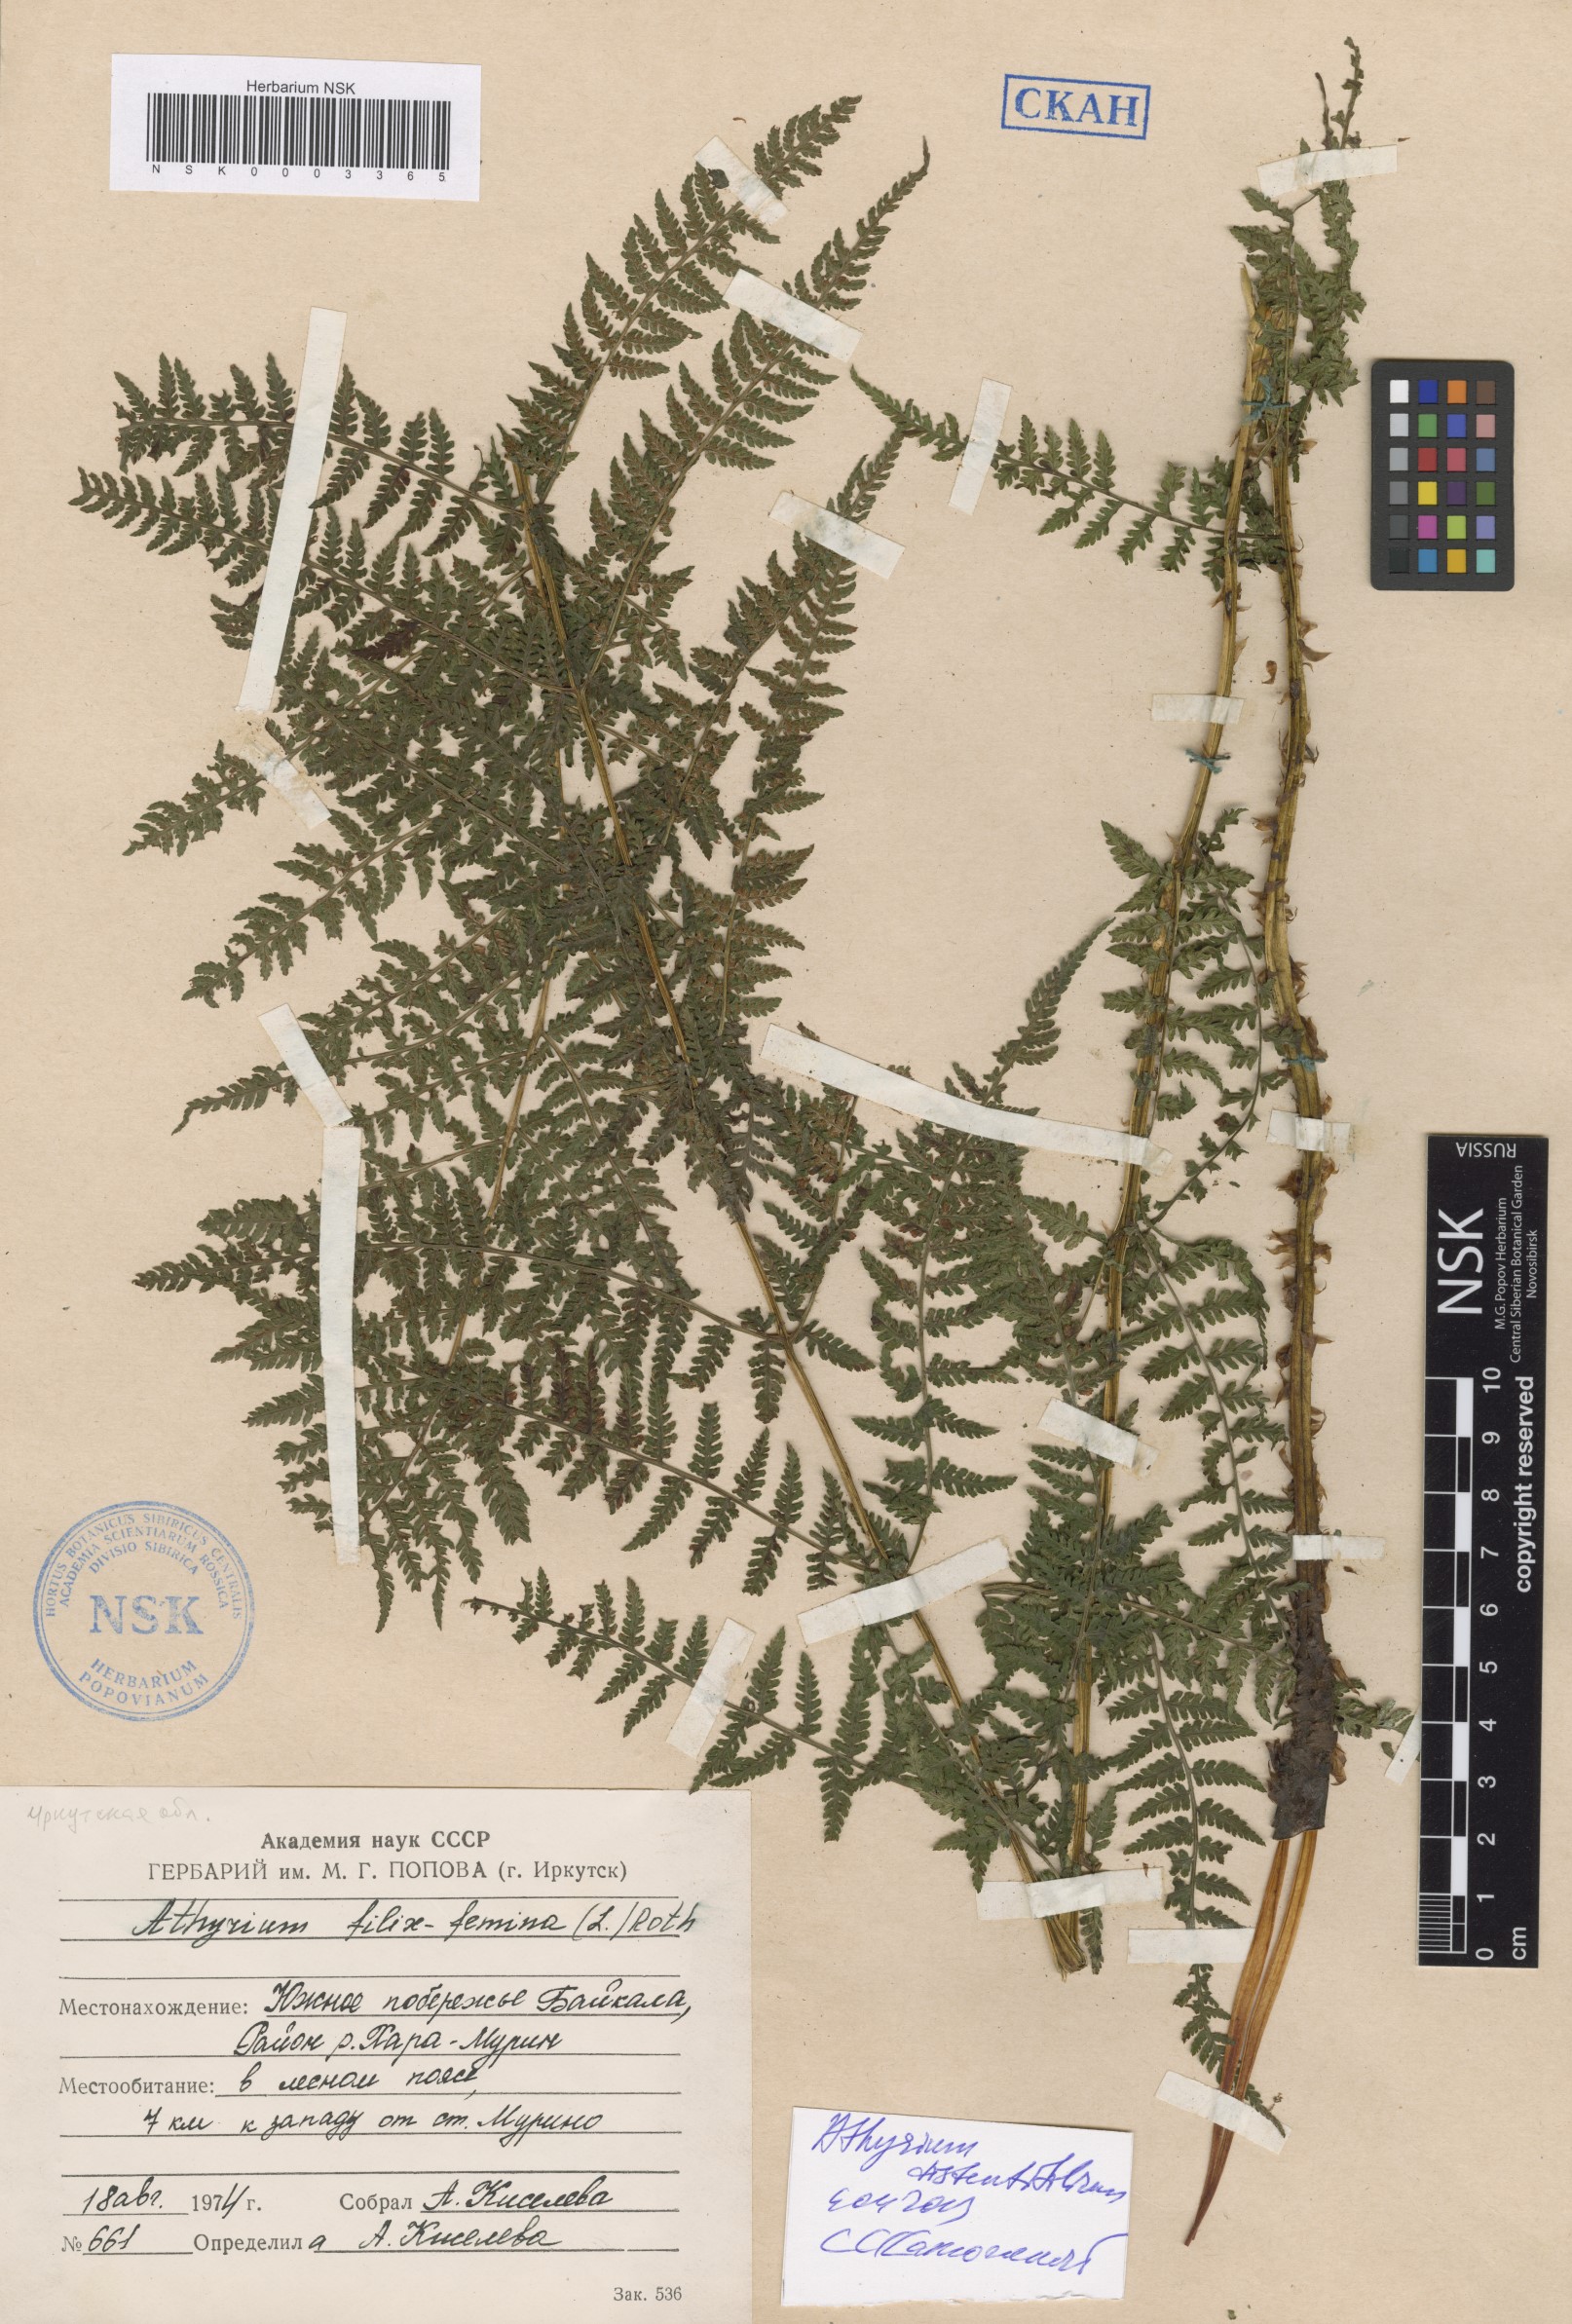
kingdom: Plantae
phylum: Tracheophyta
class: Polypodiopsida
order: Polypodiales
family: Athyriaceae
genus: Pseudathyrium
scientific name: Pseudathyrium alpestre
